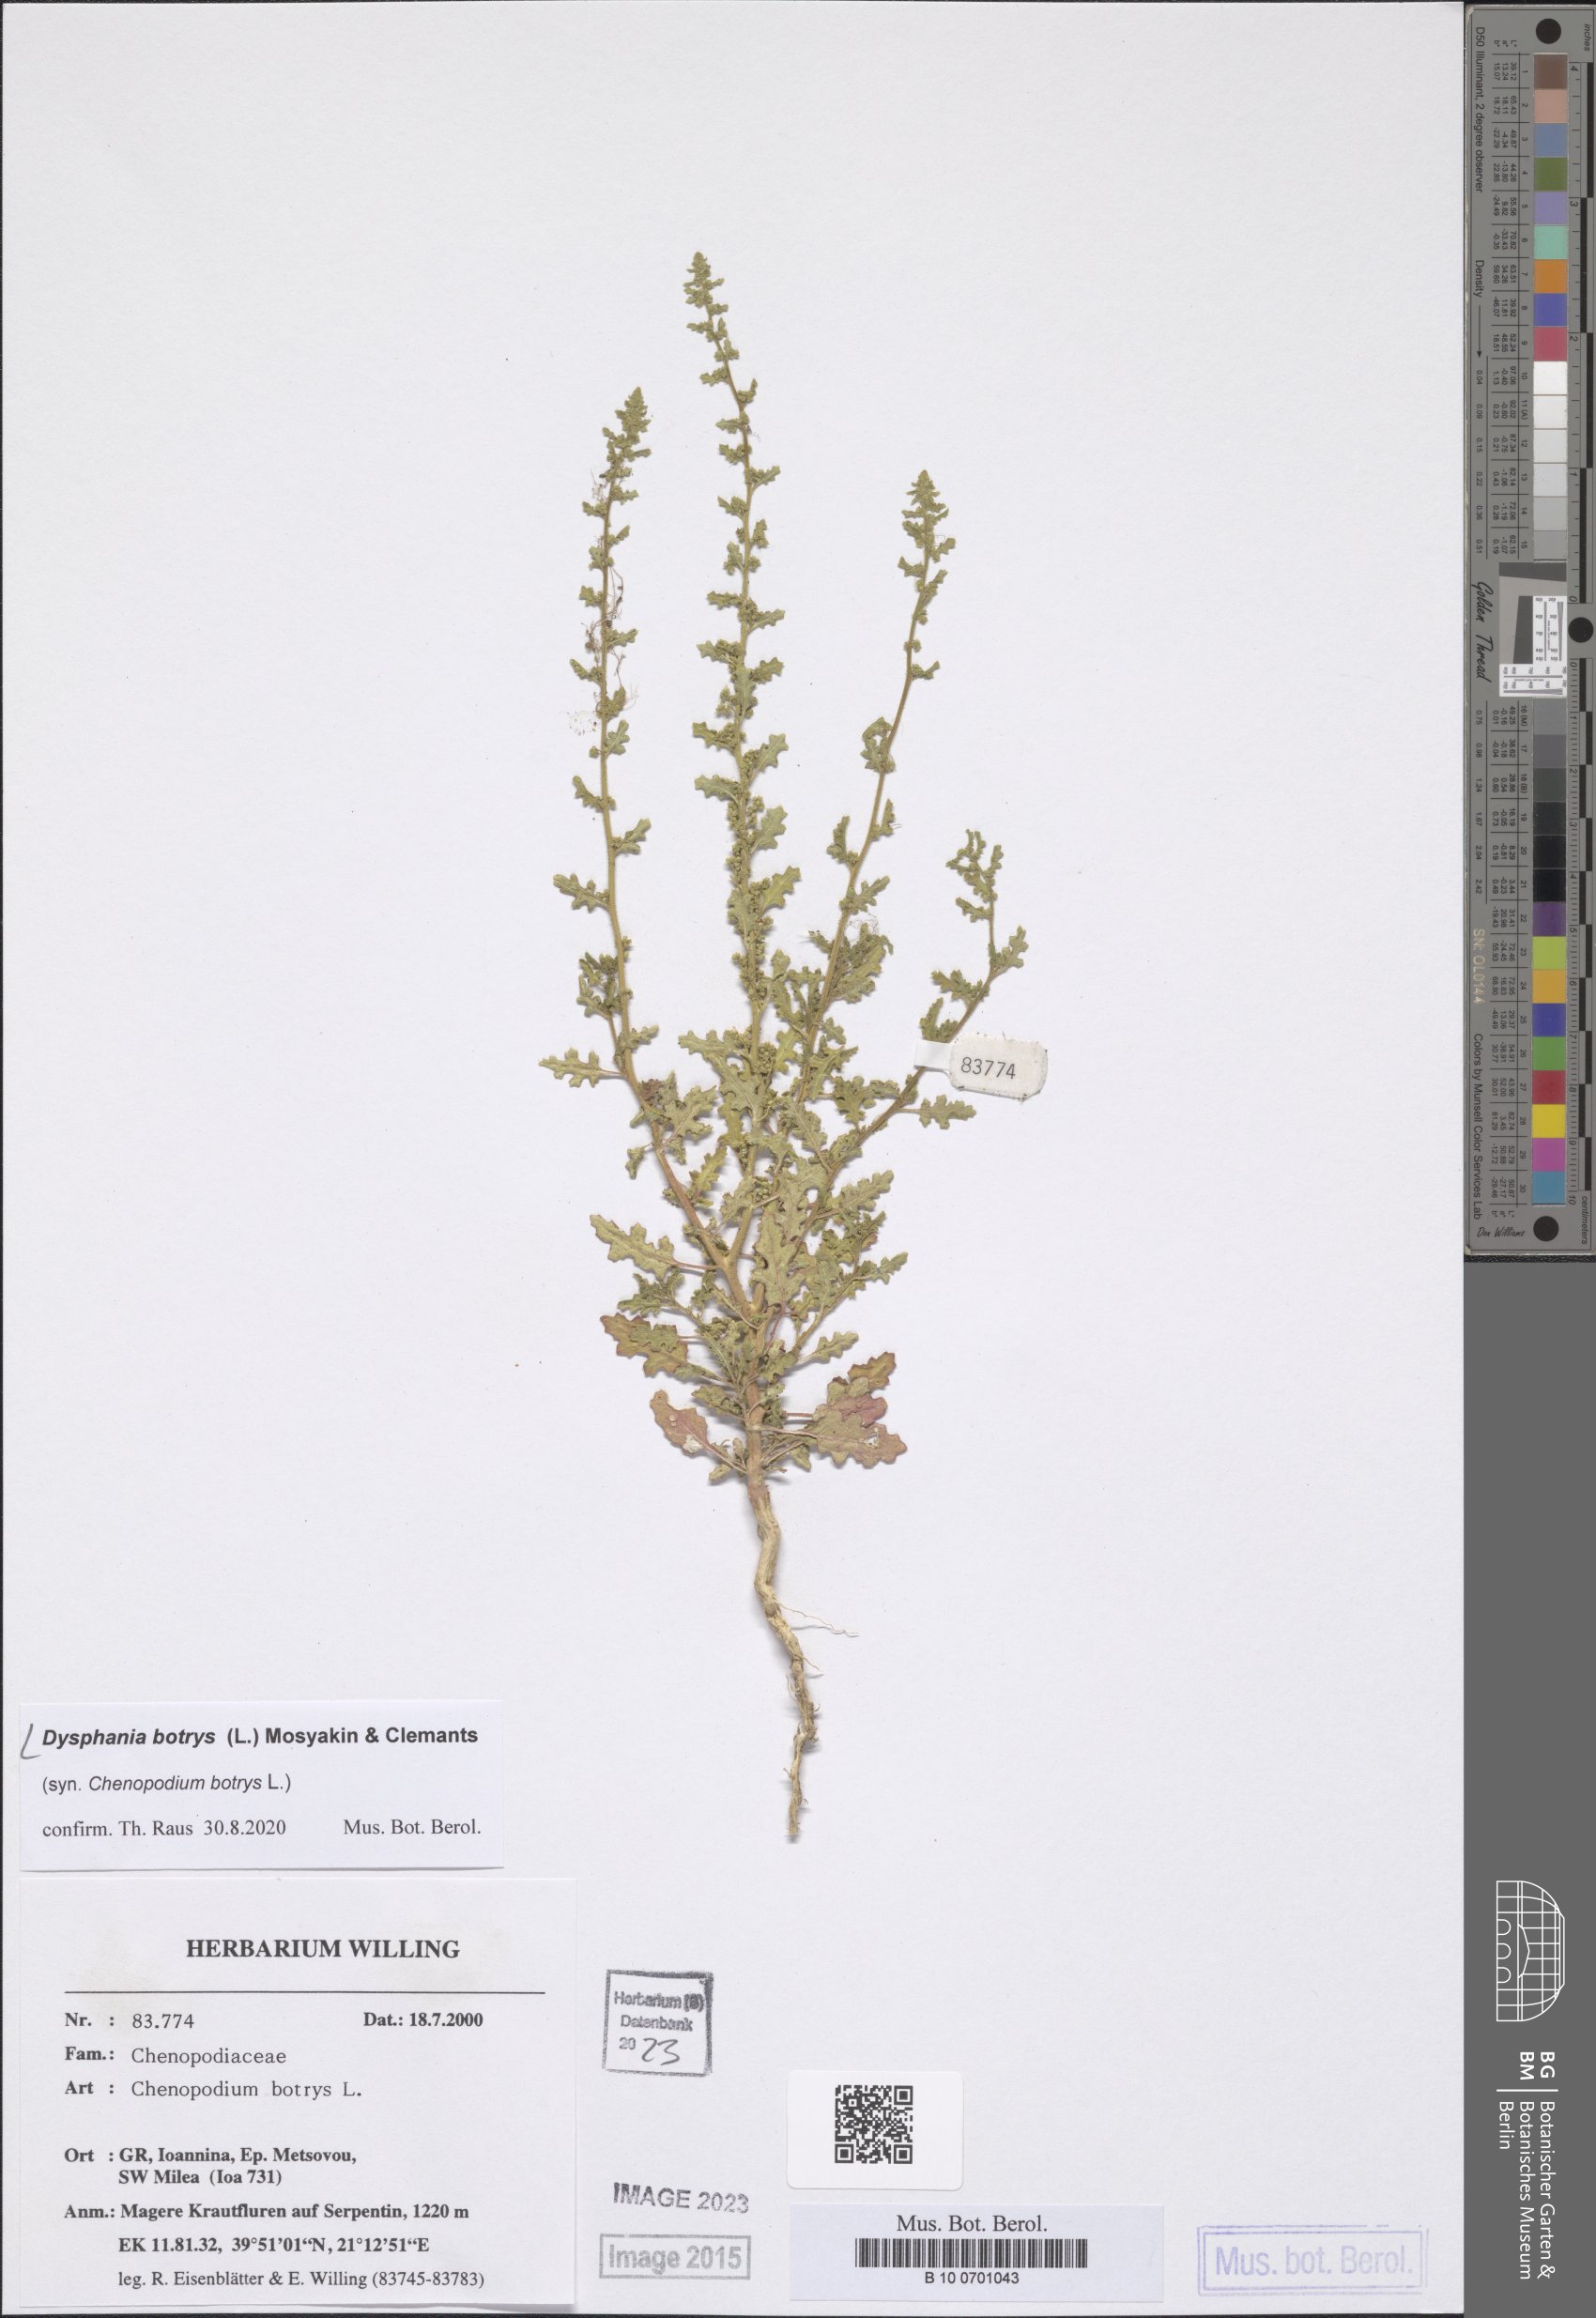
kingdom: Plantae
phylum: Tracheophyta
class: Magnoliopsida
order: Caryophyllales
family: Amaranthaceae
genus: Dysphania
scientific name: Dysphania botrys
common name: Feather-geranium
